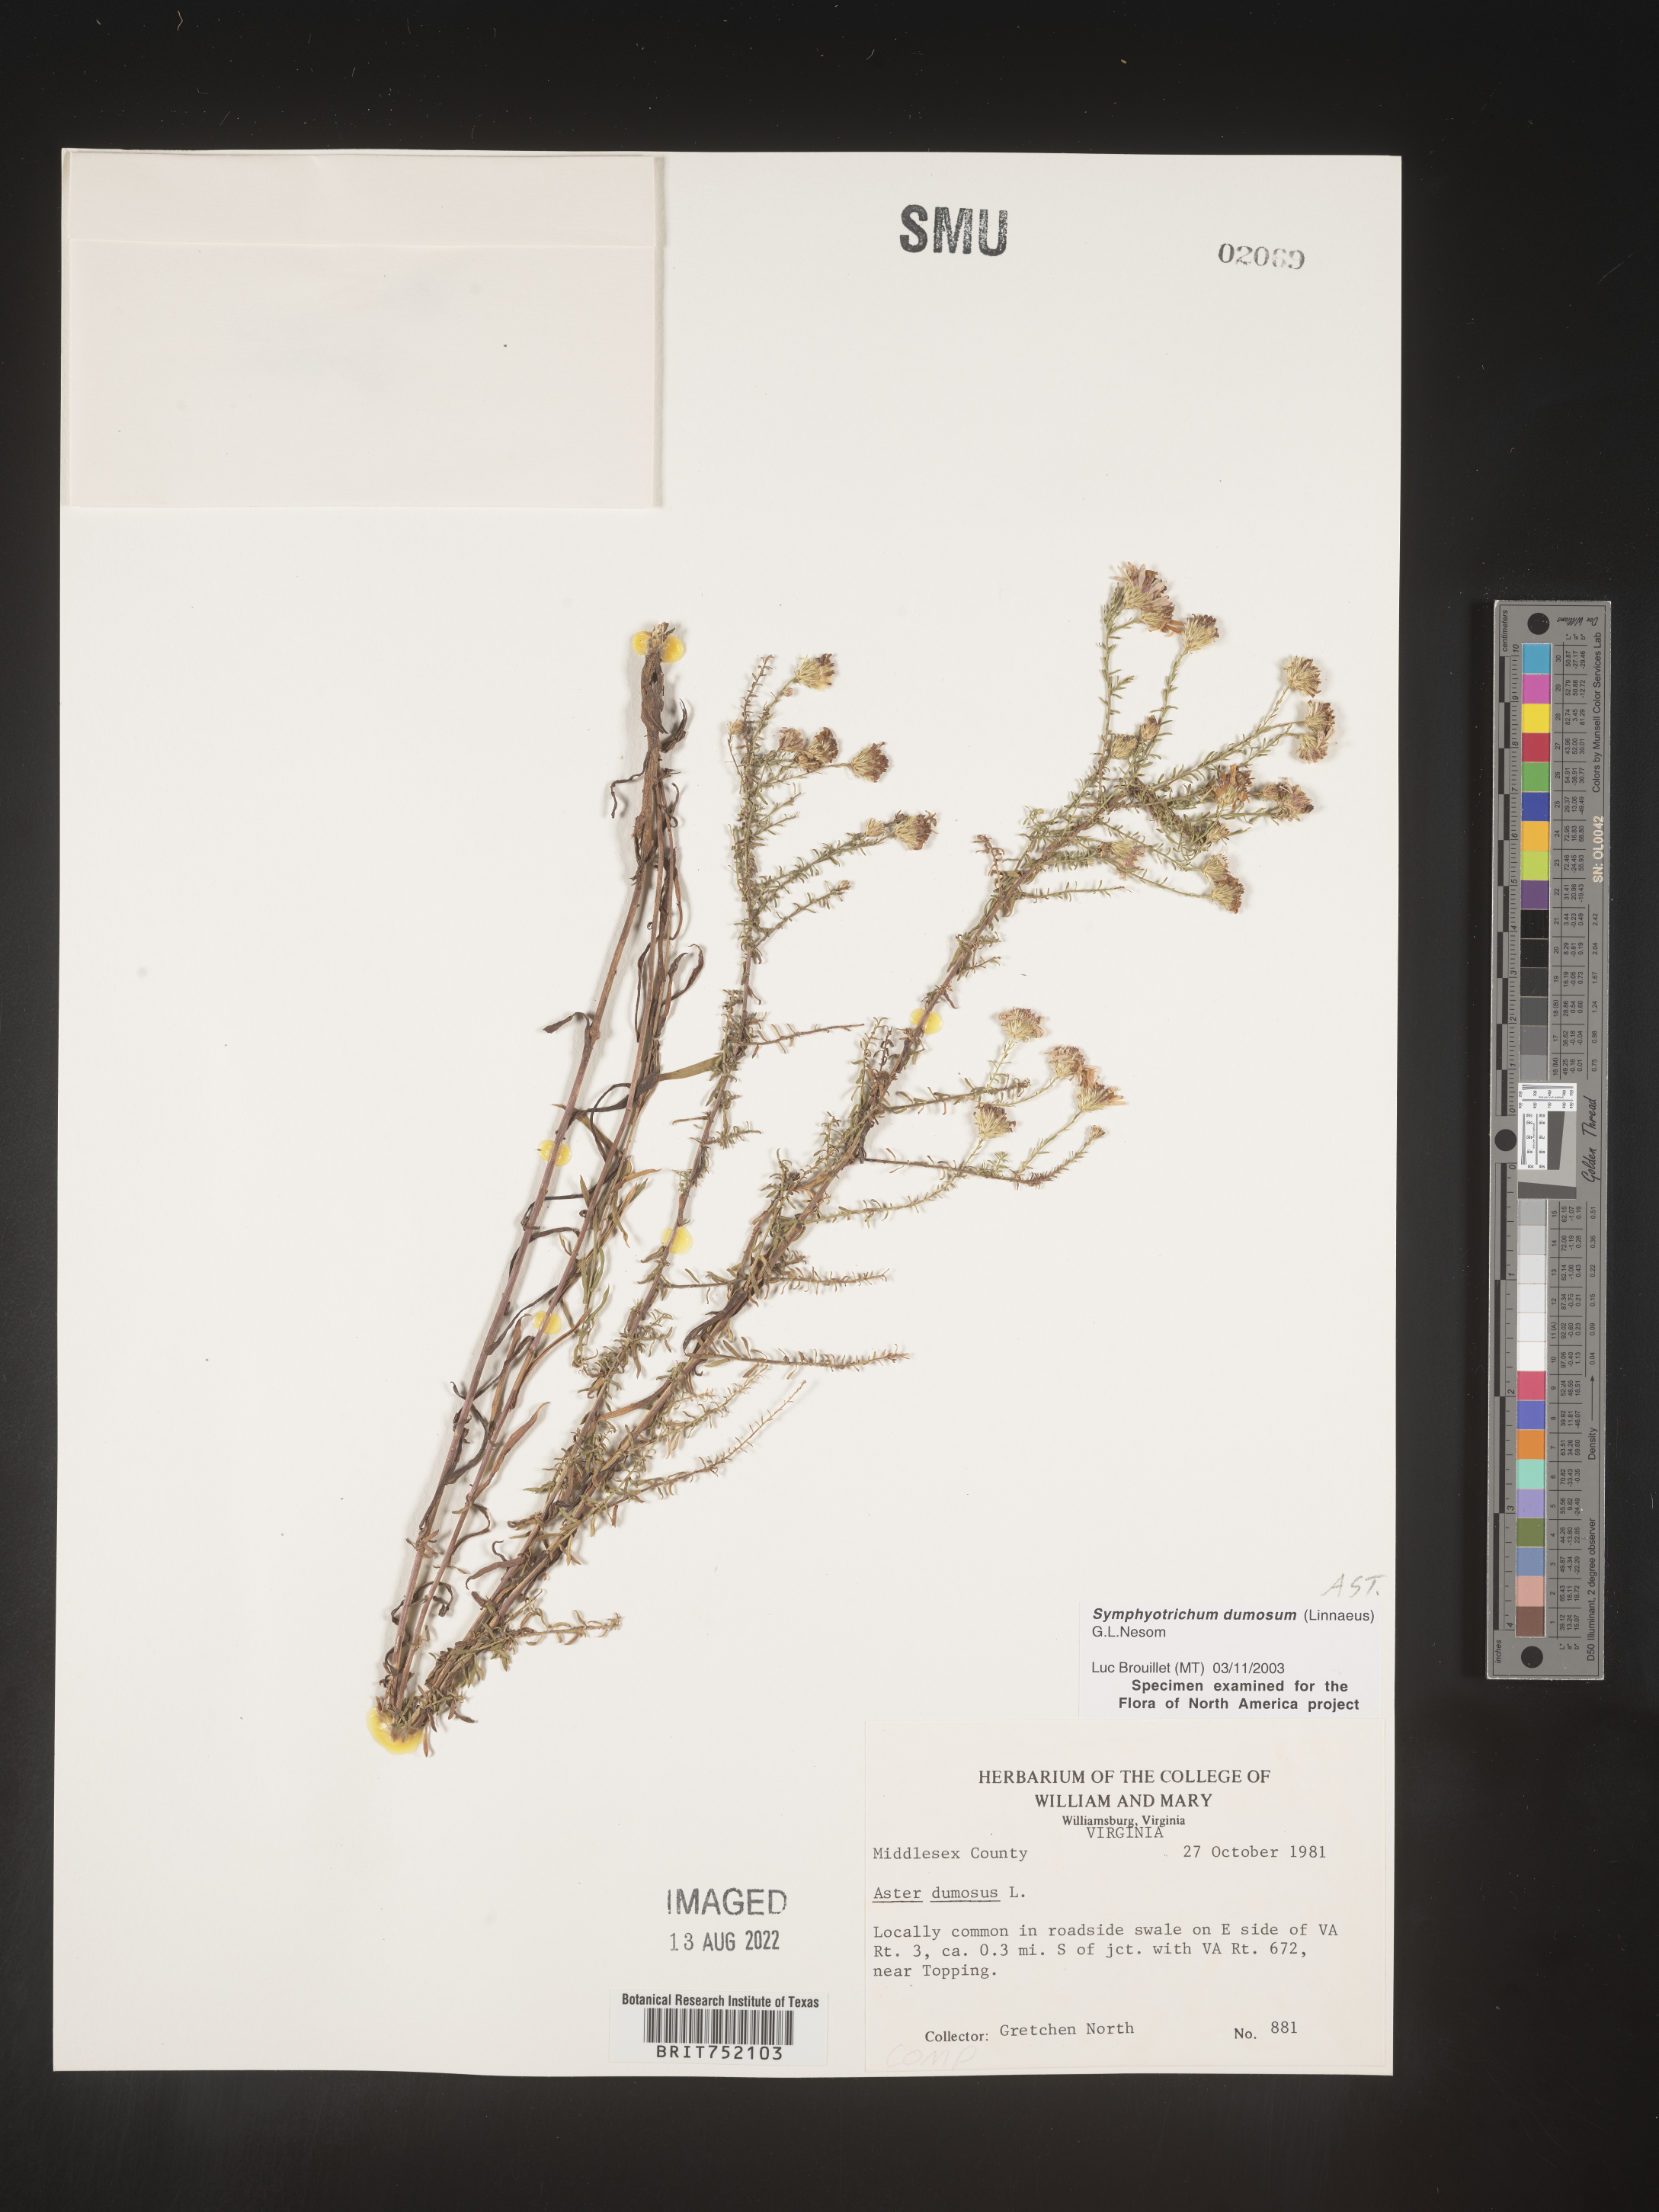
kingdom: Plantae
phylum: Tracheophyta
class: Magnoliopsida
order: Asterales
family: Asteraceae
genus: Symphyotrichum
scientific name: Symphyotrichum dumosum
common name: Bushy aster
